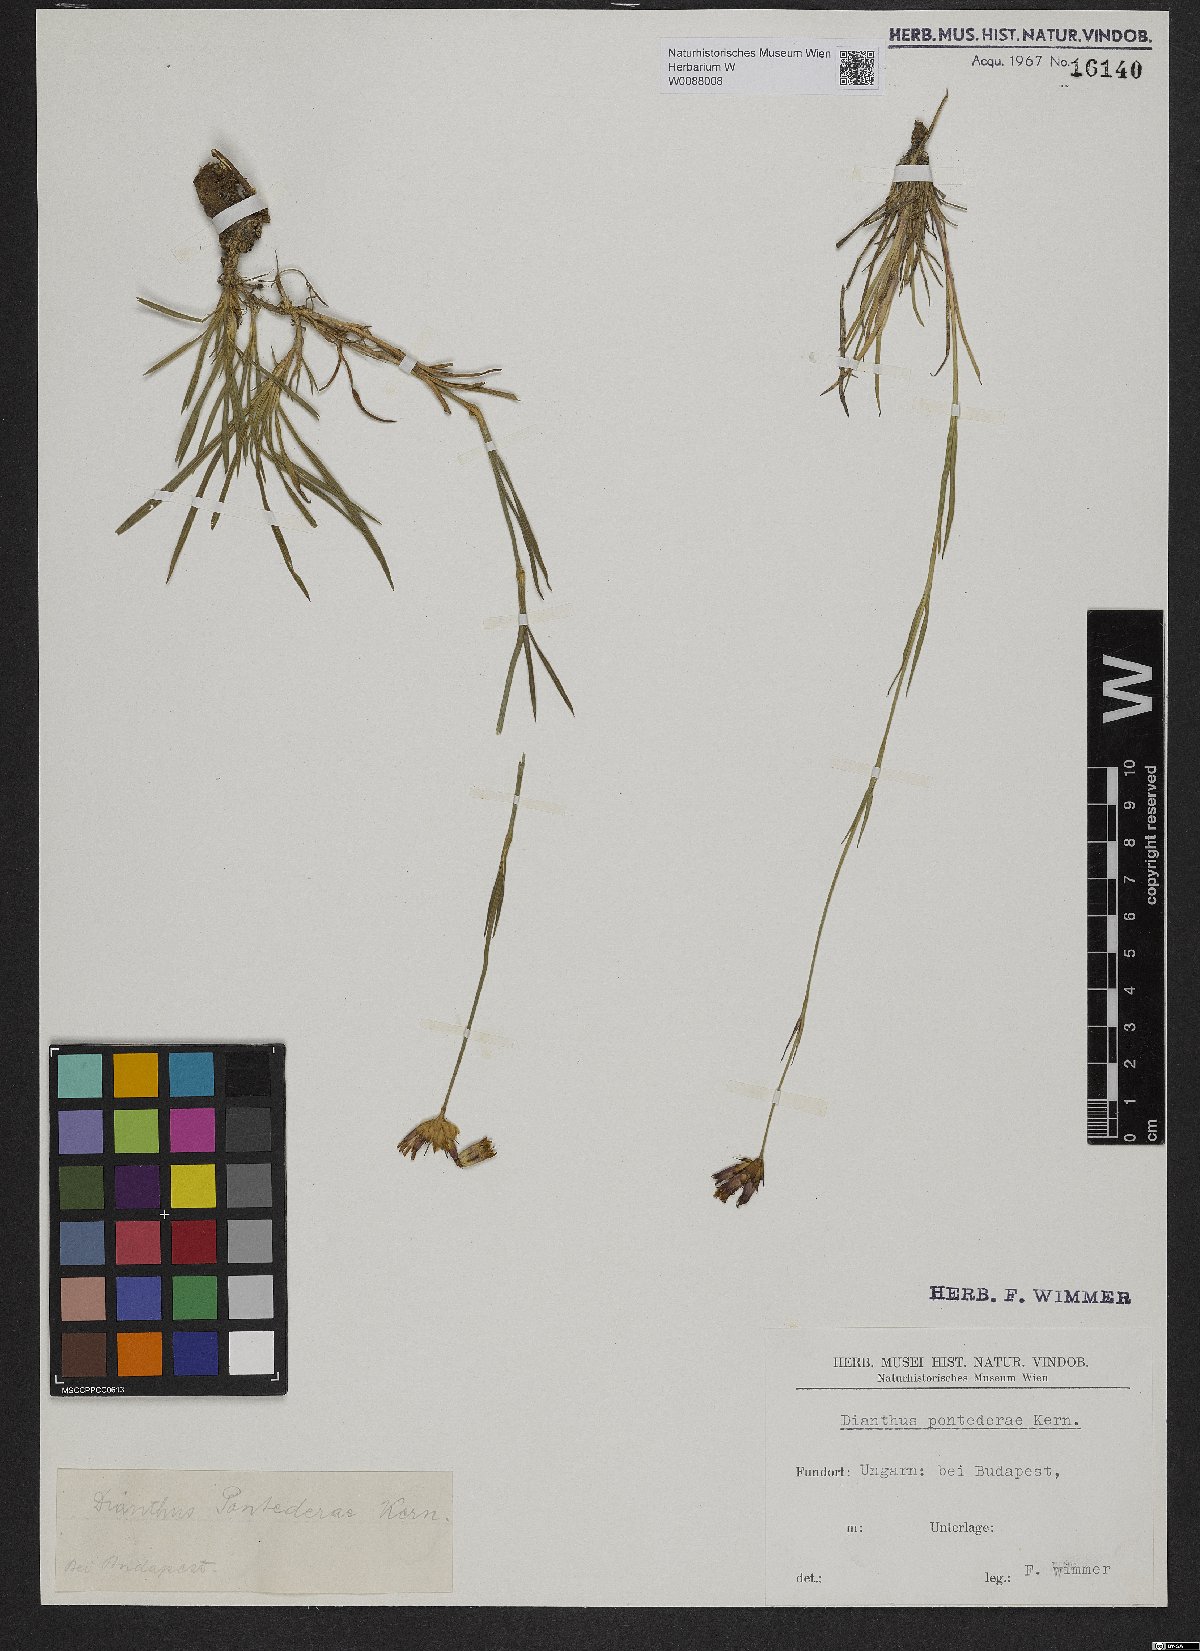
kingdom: Plantae
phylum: Tracheophyta
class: Magnoliopsida
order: Caryophyllales
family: Caryophyllaceae
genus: Dianthus
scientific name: Dianthus pontederae
